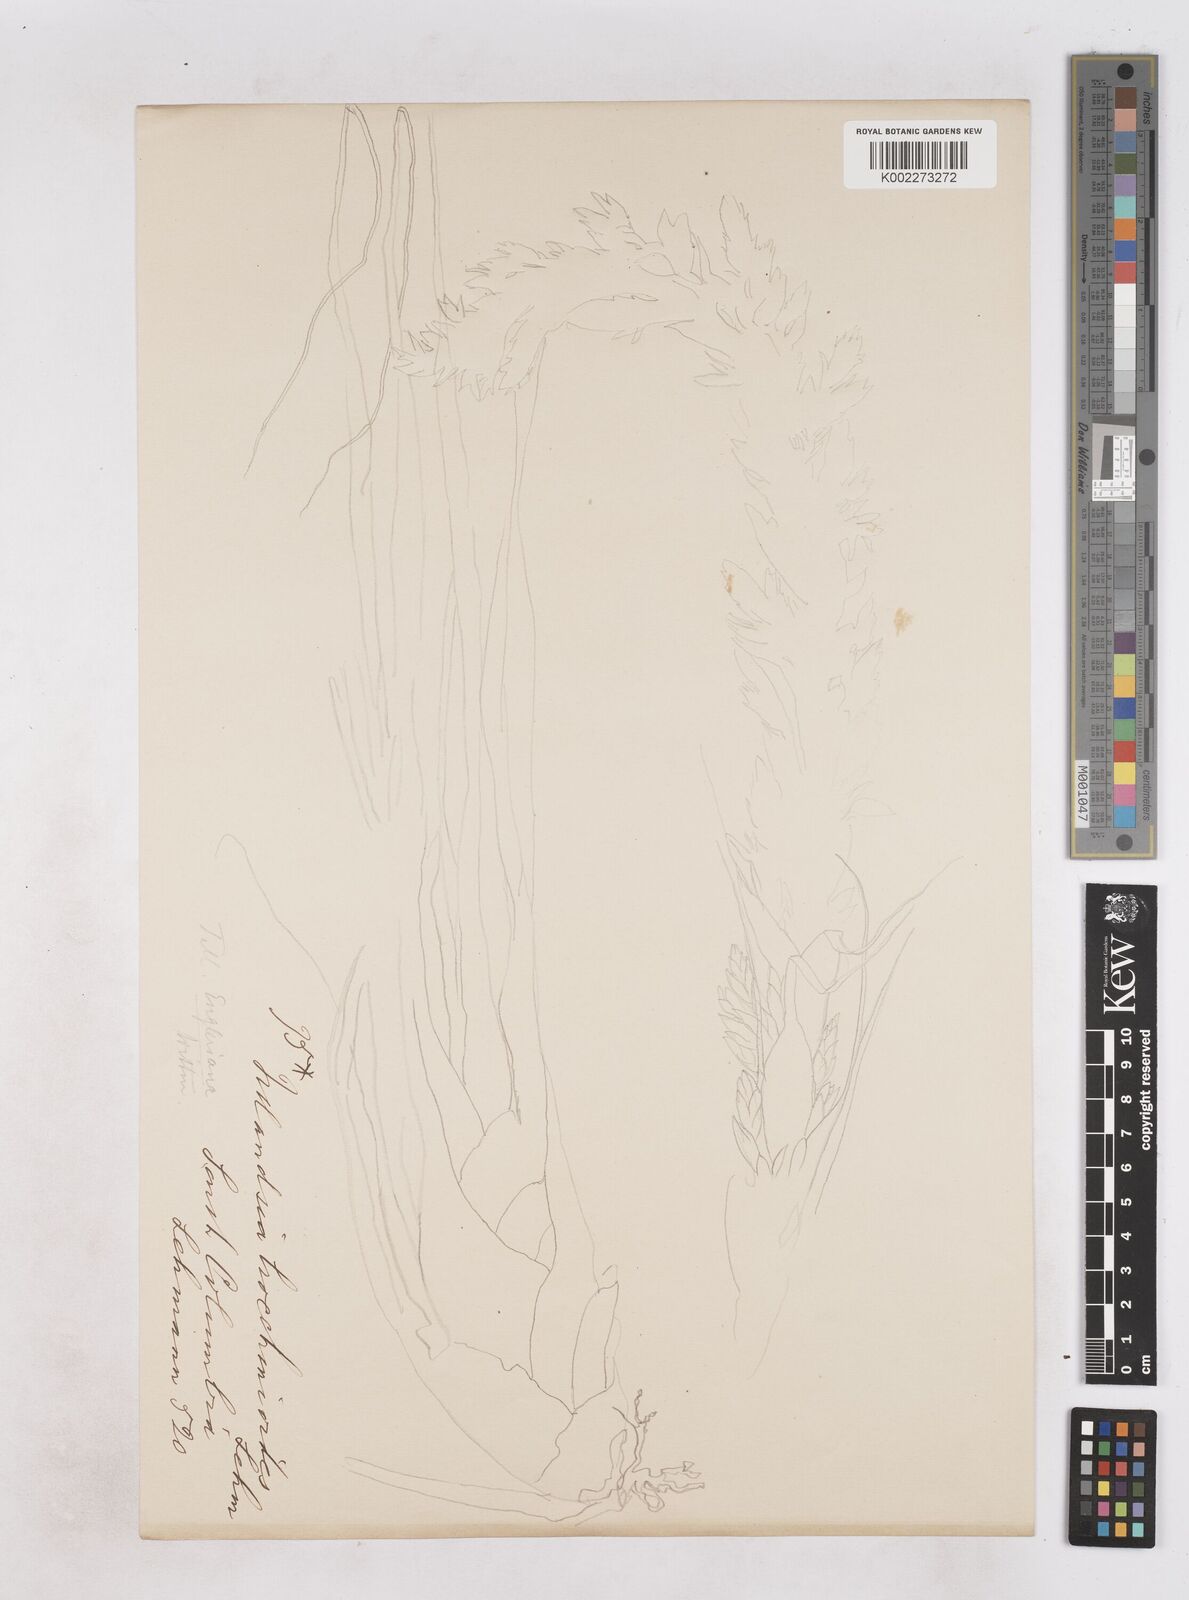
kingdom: Plantae
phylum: Tracheophyta
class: Liliopsida
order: Poales
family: Bromeliaceae
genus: Tillandsia
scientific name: Tillandsia
